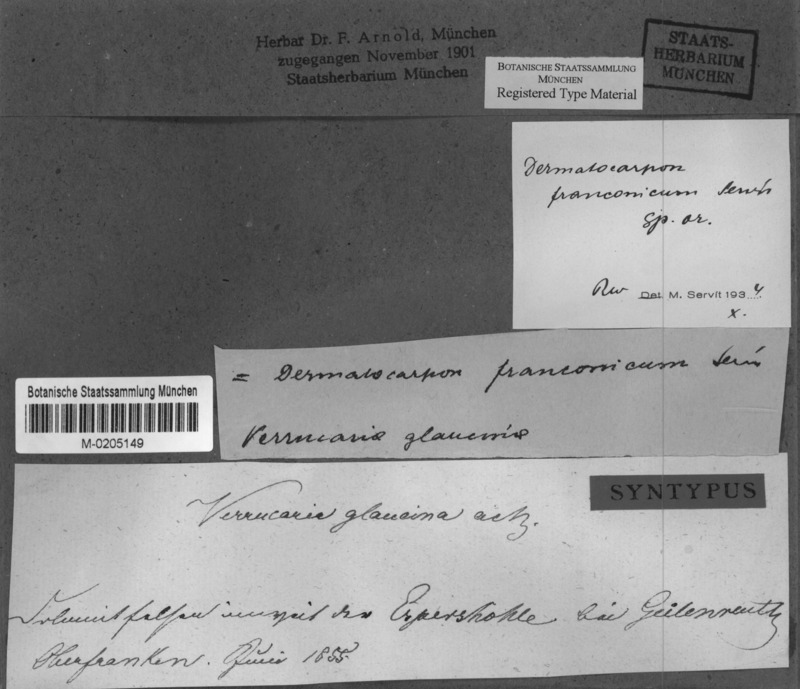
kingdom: Fungi
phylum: Ascomycota
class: Eurotiomycetes
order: Verrucariales
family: Verrucariaceae
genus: Dermatocarpon
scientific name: Dermatocarpon
